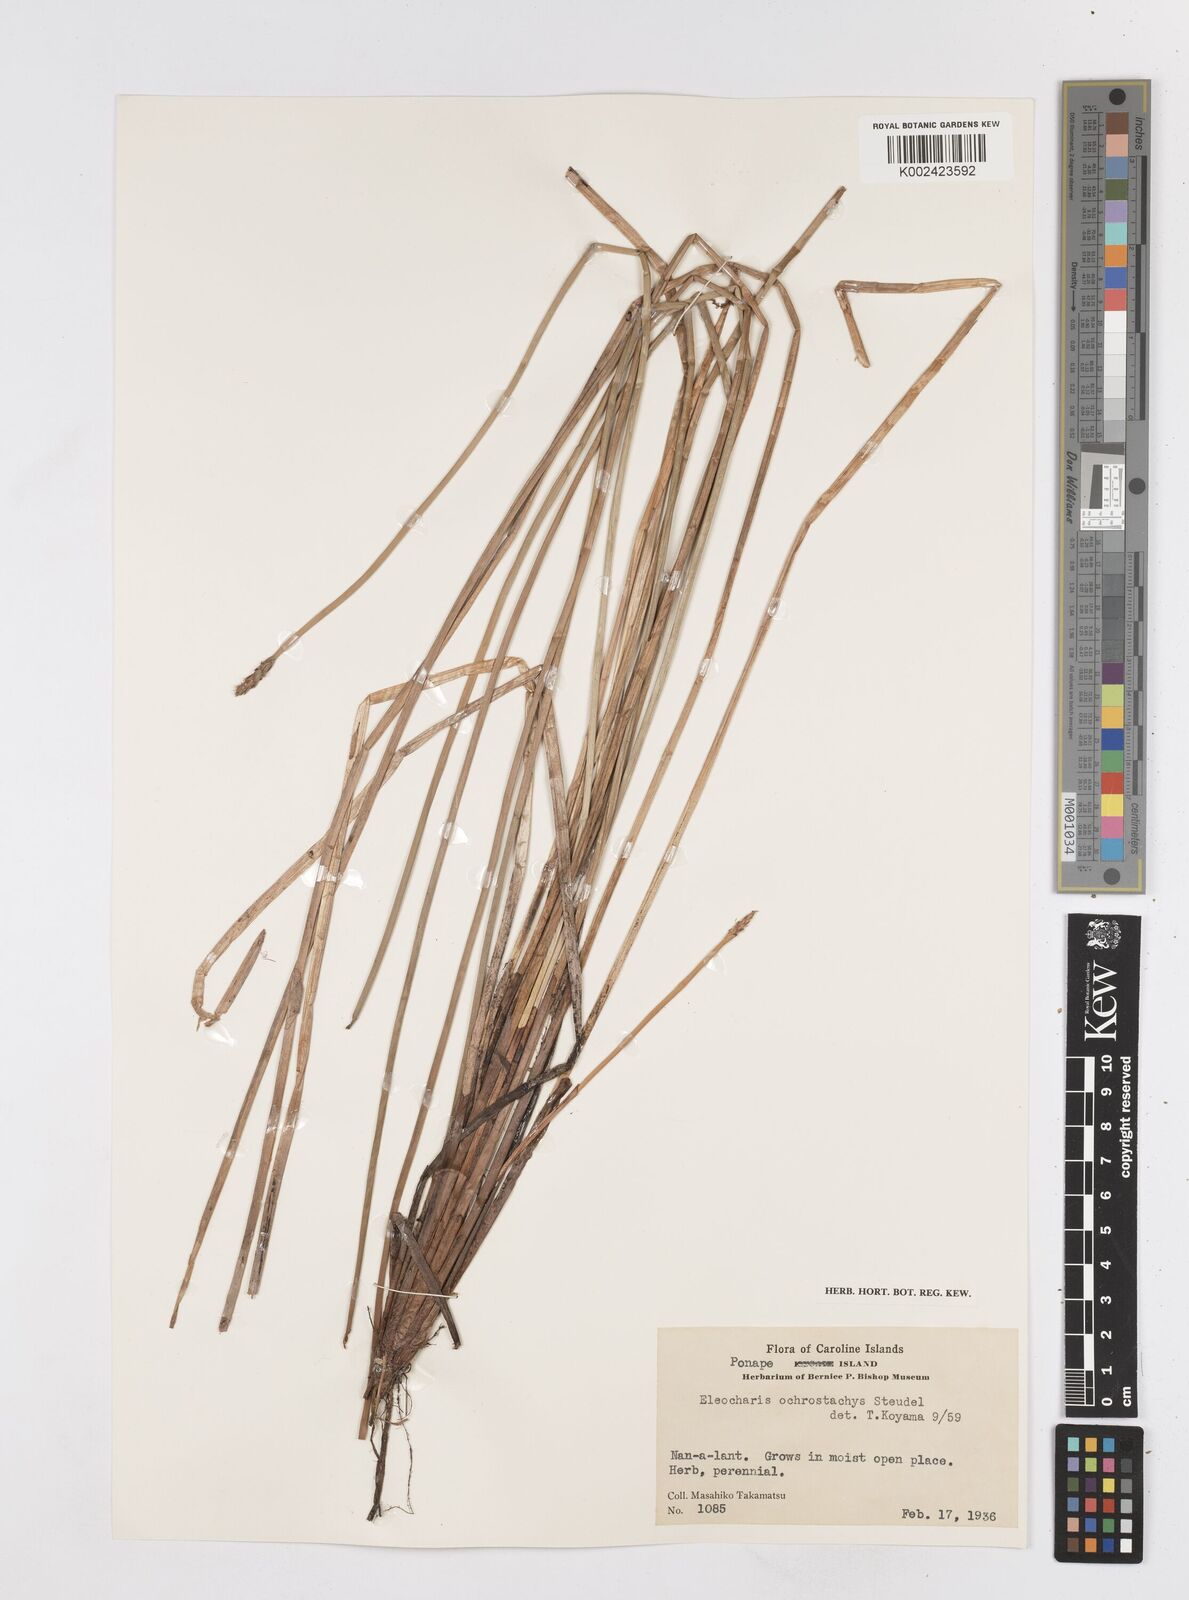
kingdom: Plantae
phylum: Tracheophyta
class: Liliopsida
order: Poales
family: Cyperaceae
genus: Eleocharis
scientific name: Eleocharis ochrostachys
